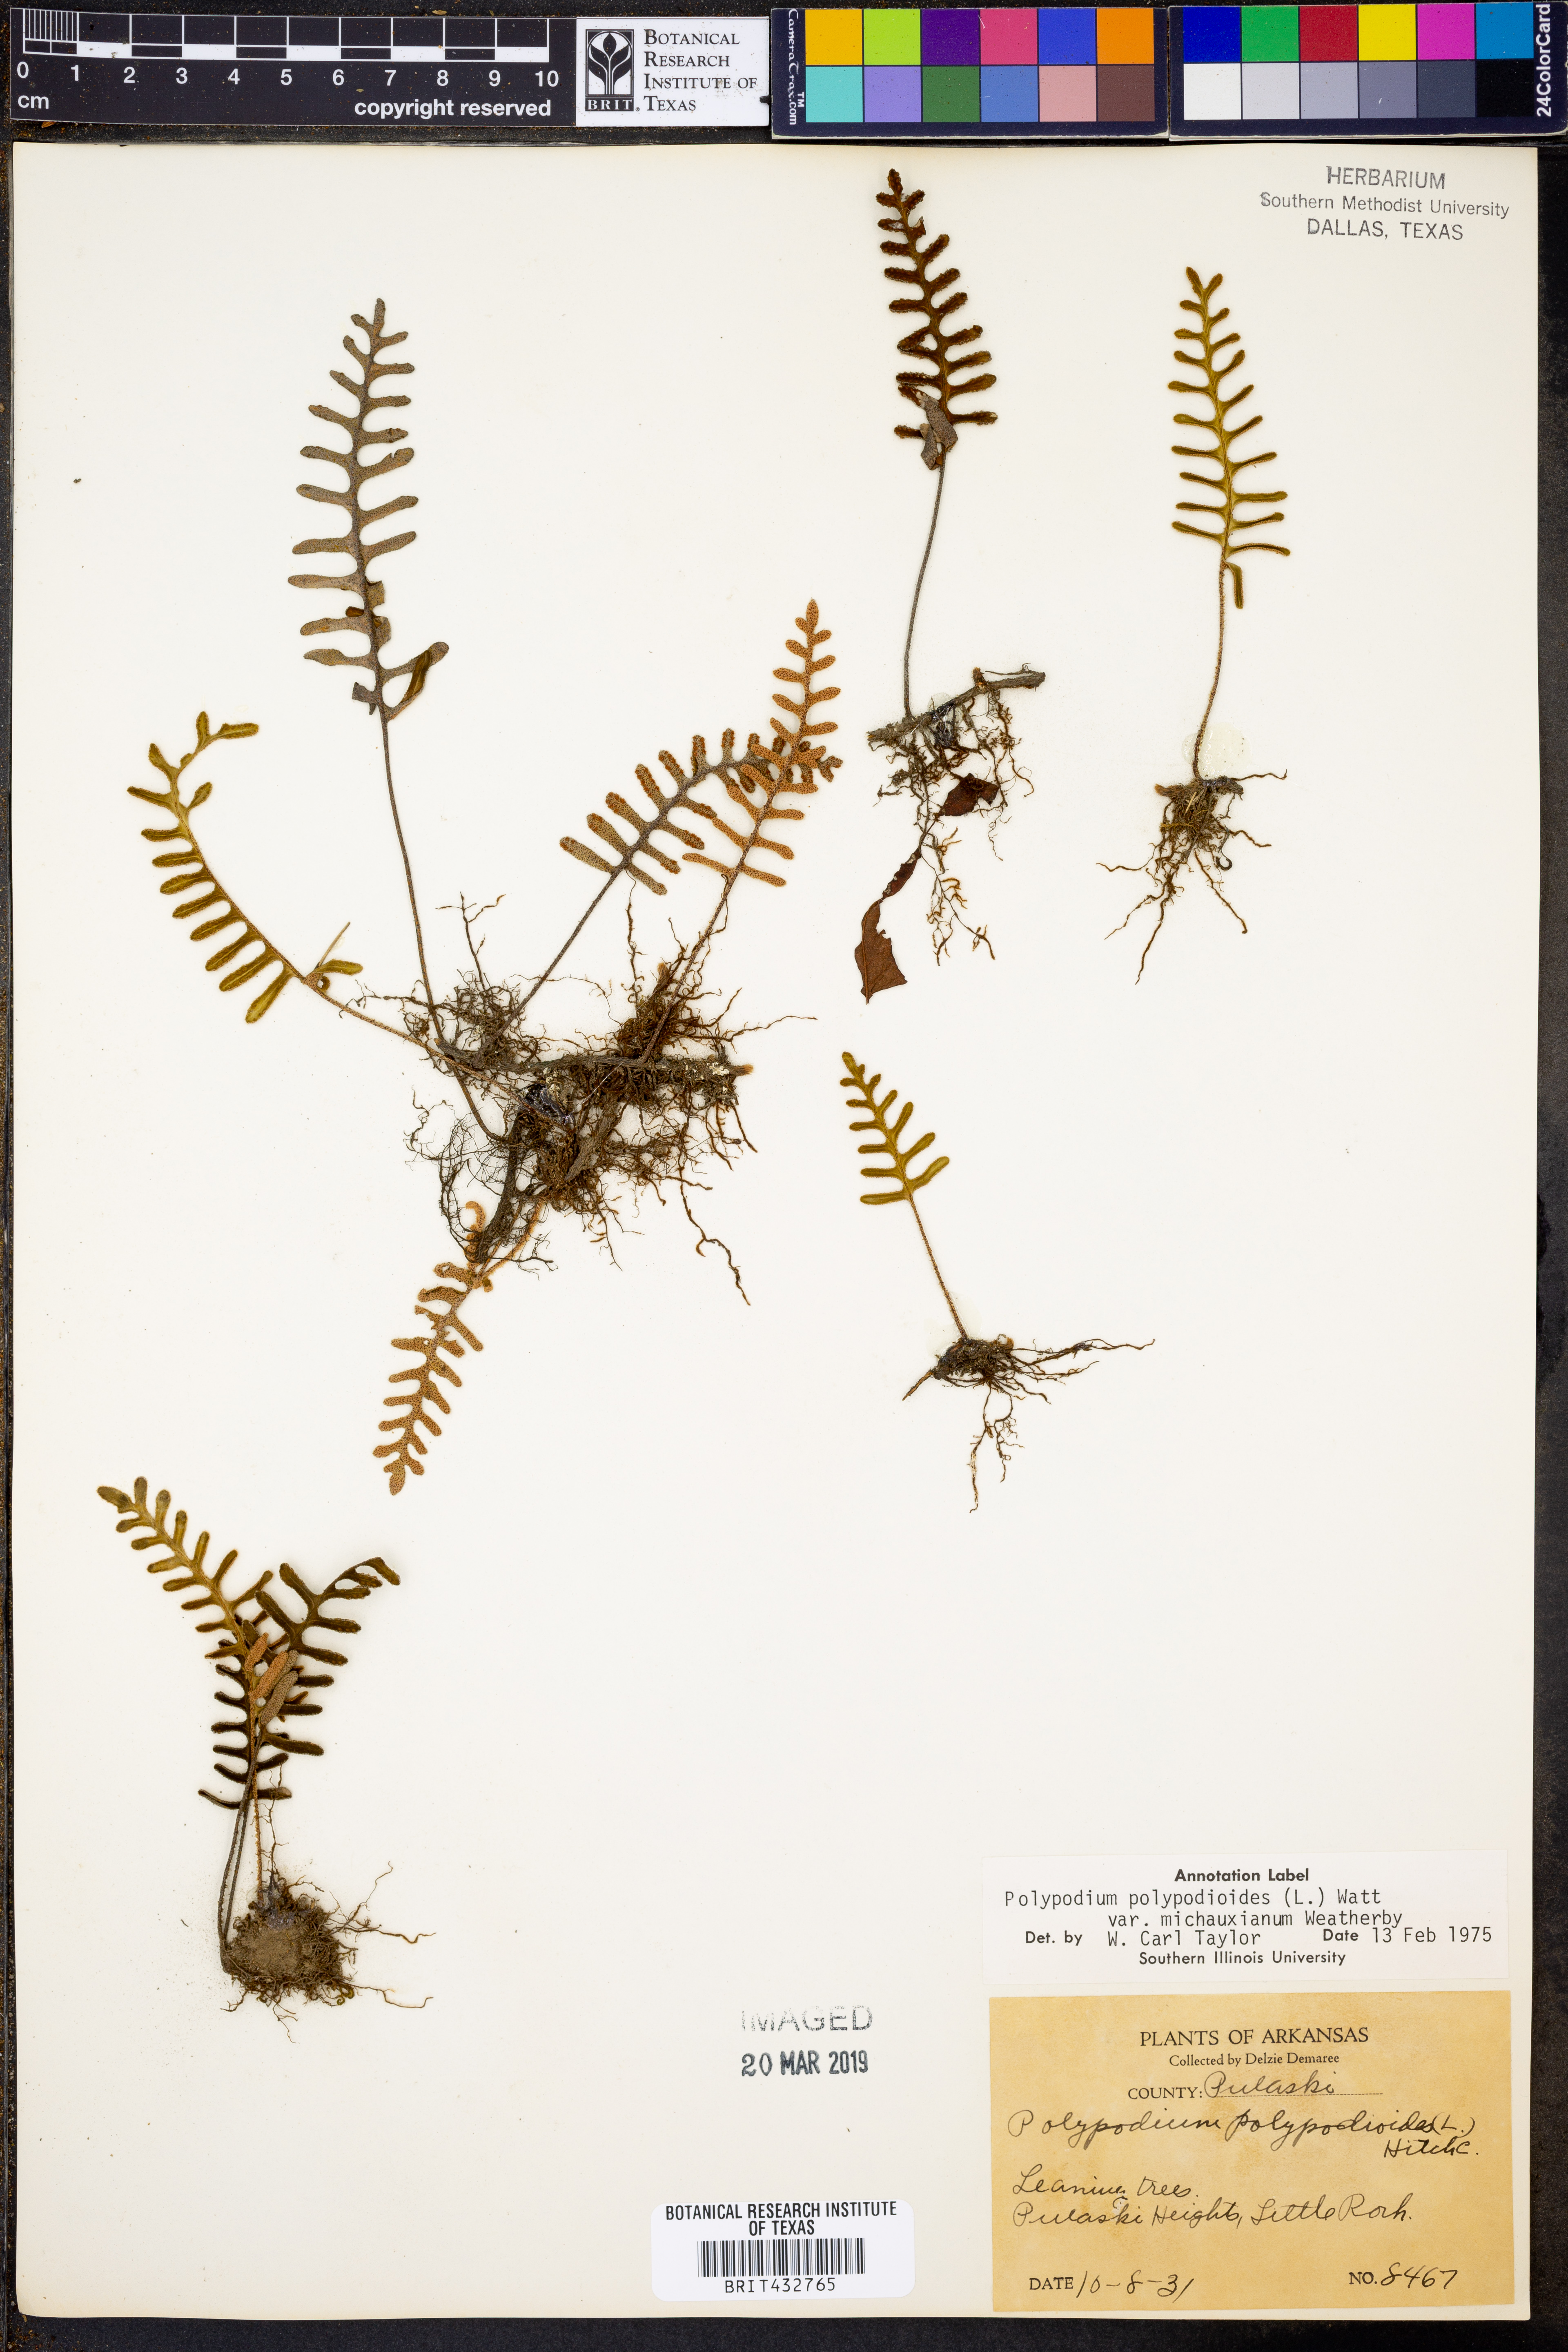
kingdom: Plantae
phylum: Tracheophyta
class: Polypodiopsida
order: Polypodiales
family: Polypodiaceae
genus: Pleopeltis
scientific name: Pleopeltis michauxiana
